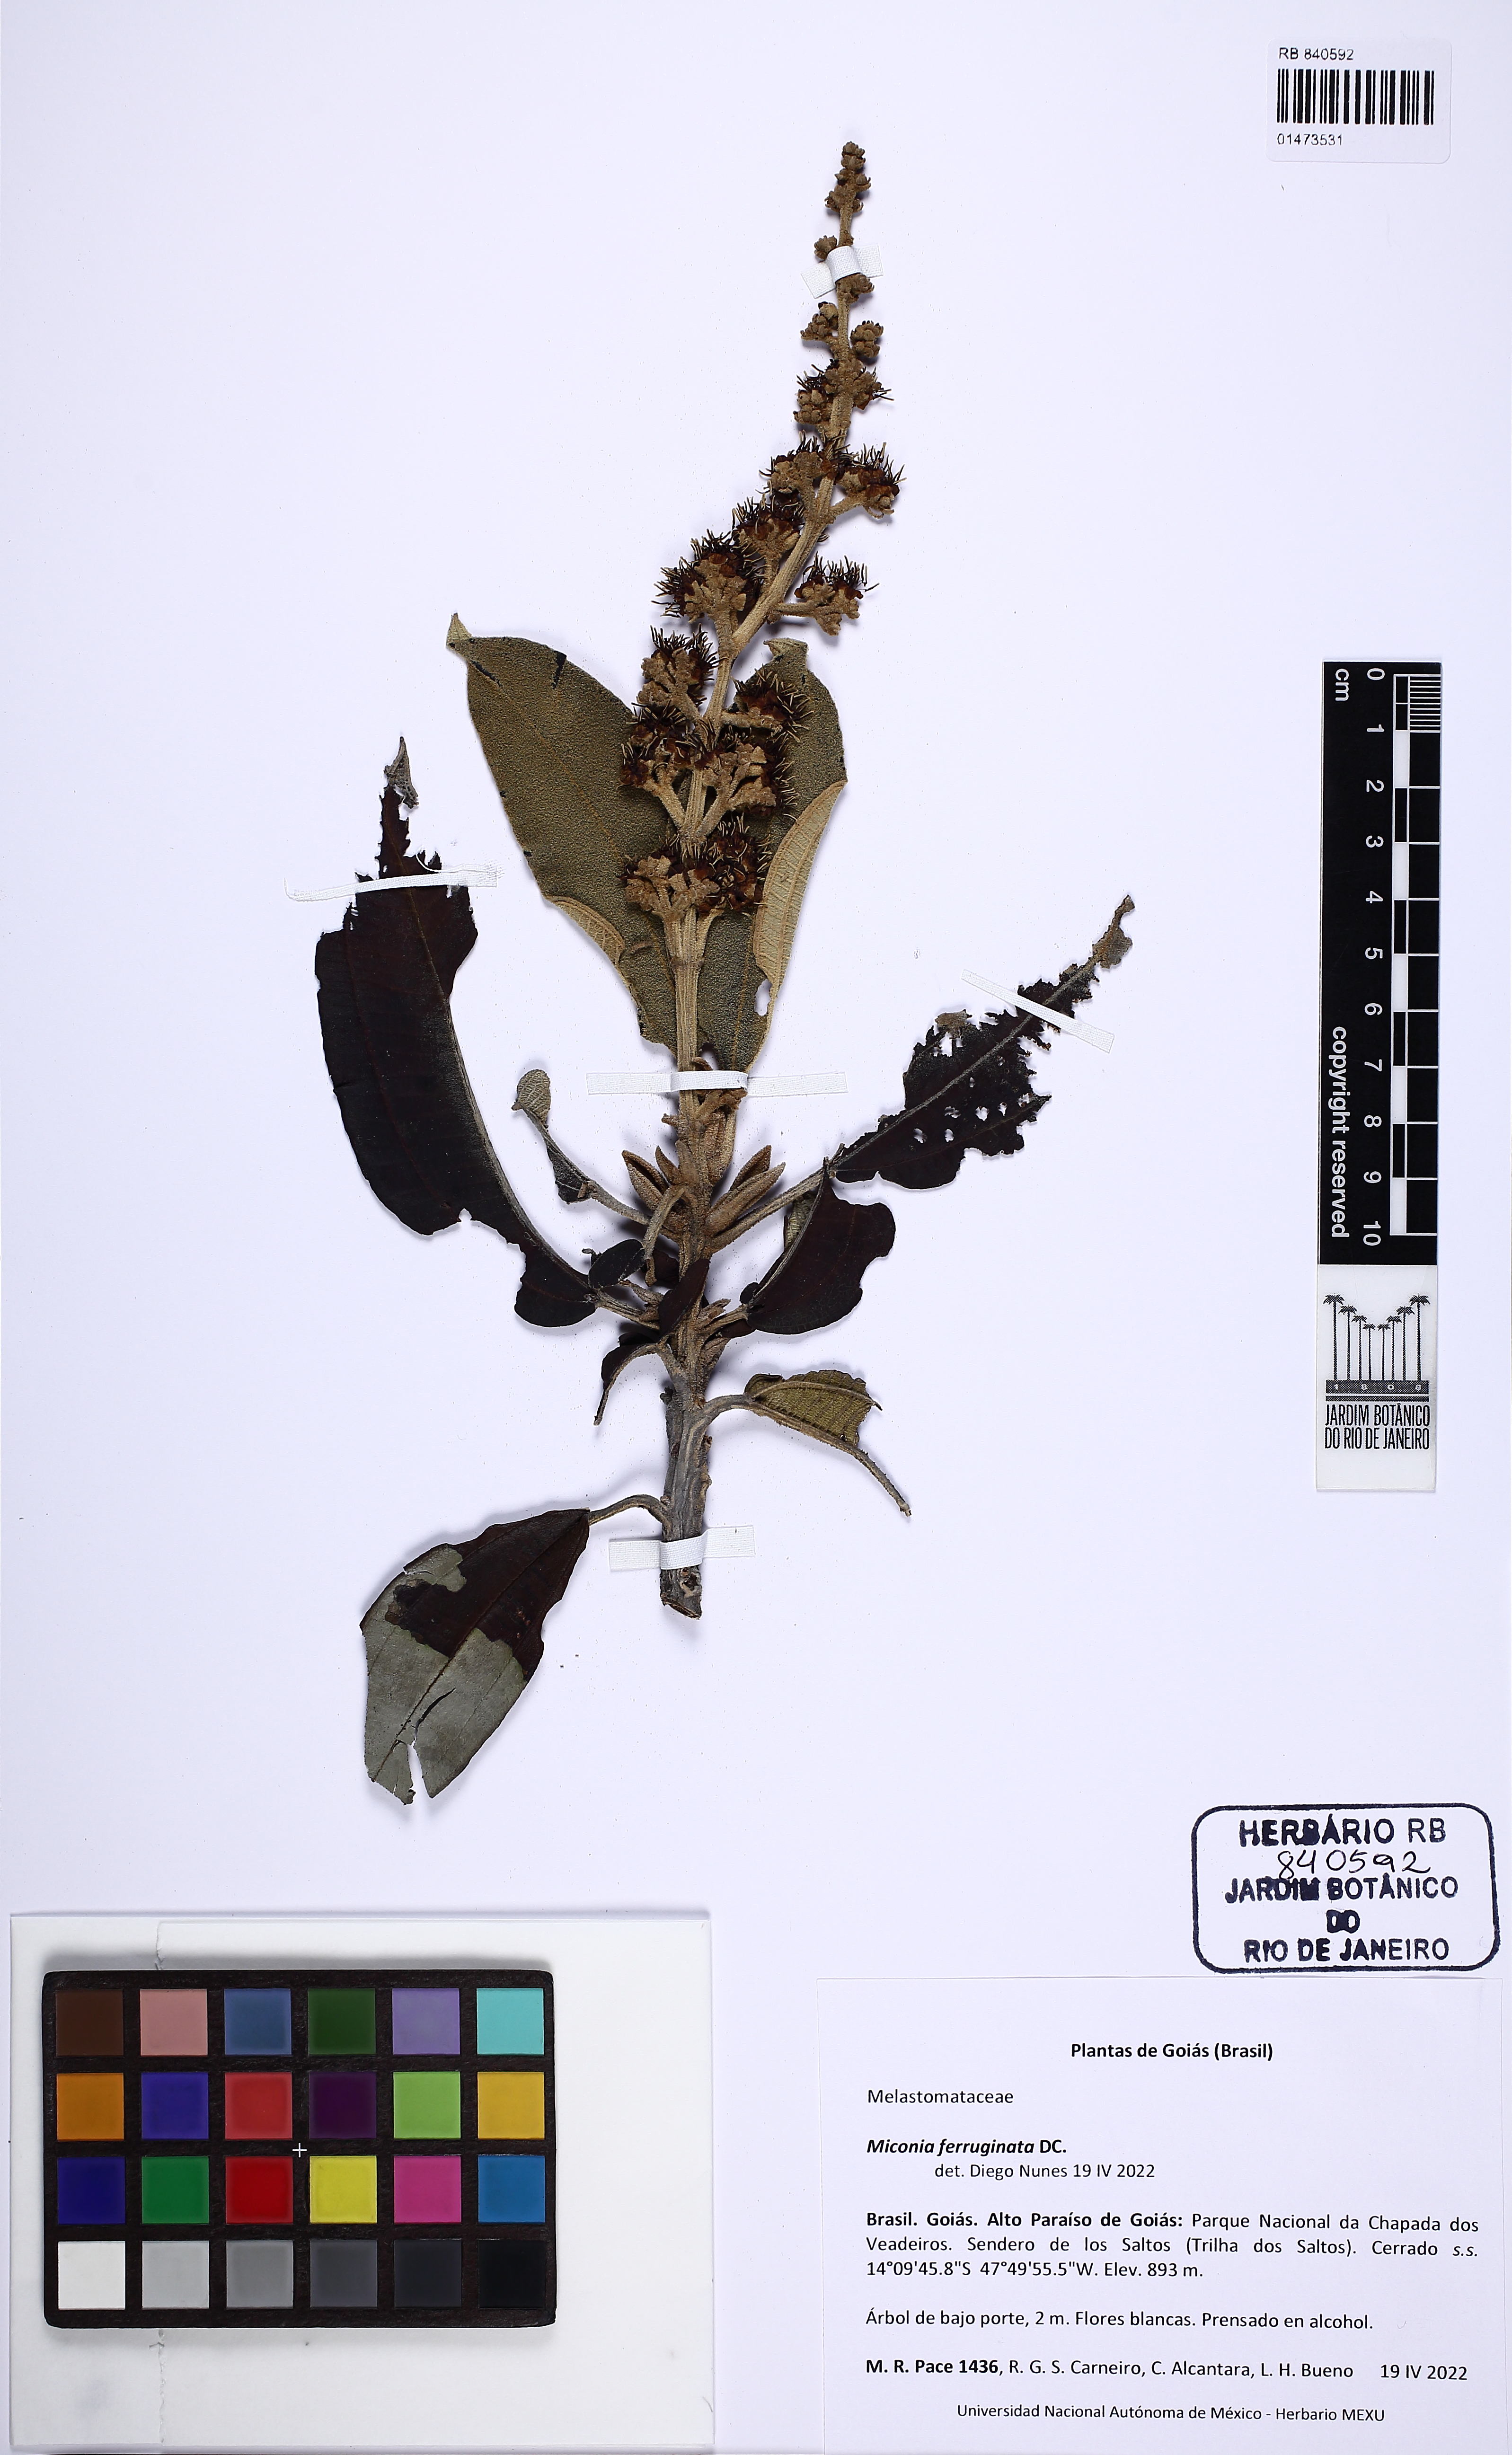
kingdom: Plantae
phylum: Tracheophyta
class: Magnoliopsida
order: Myrtales
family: Melastomataceae
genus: Miconia
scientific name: Miconia ferruginata
